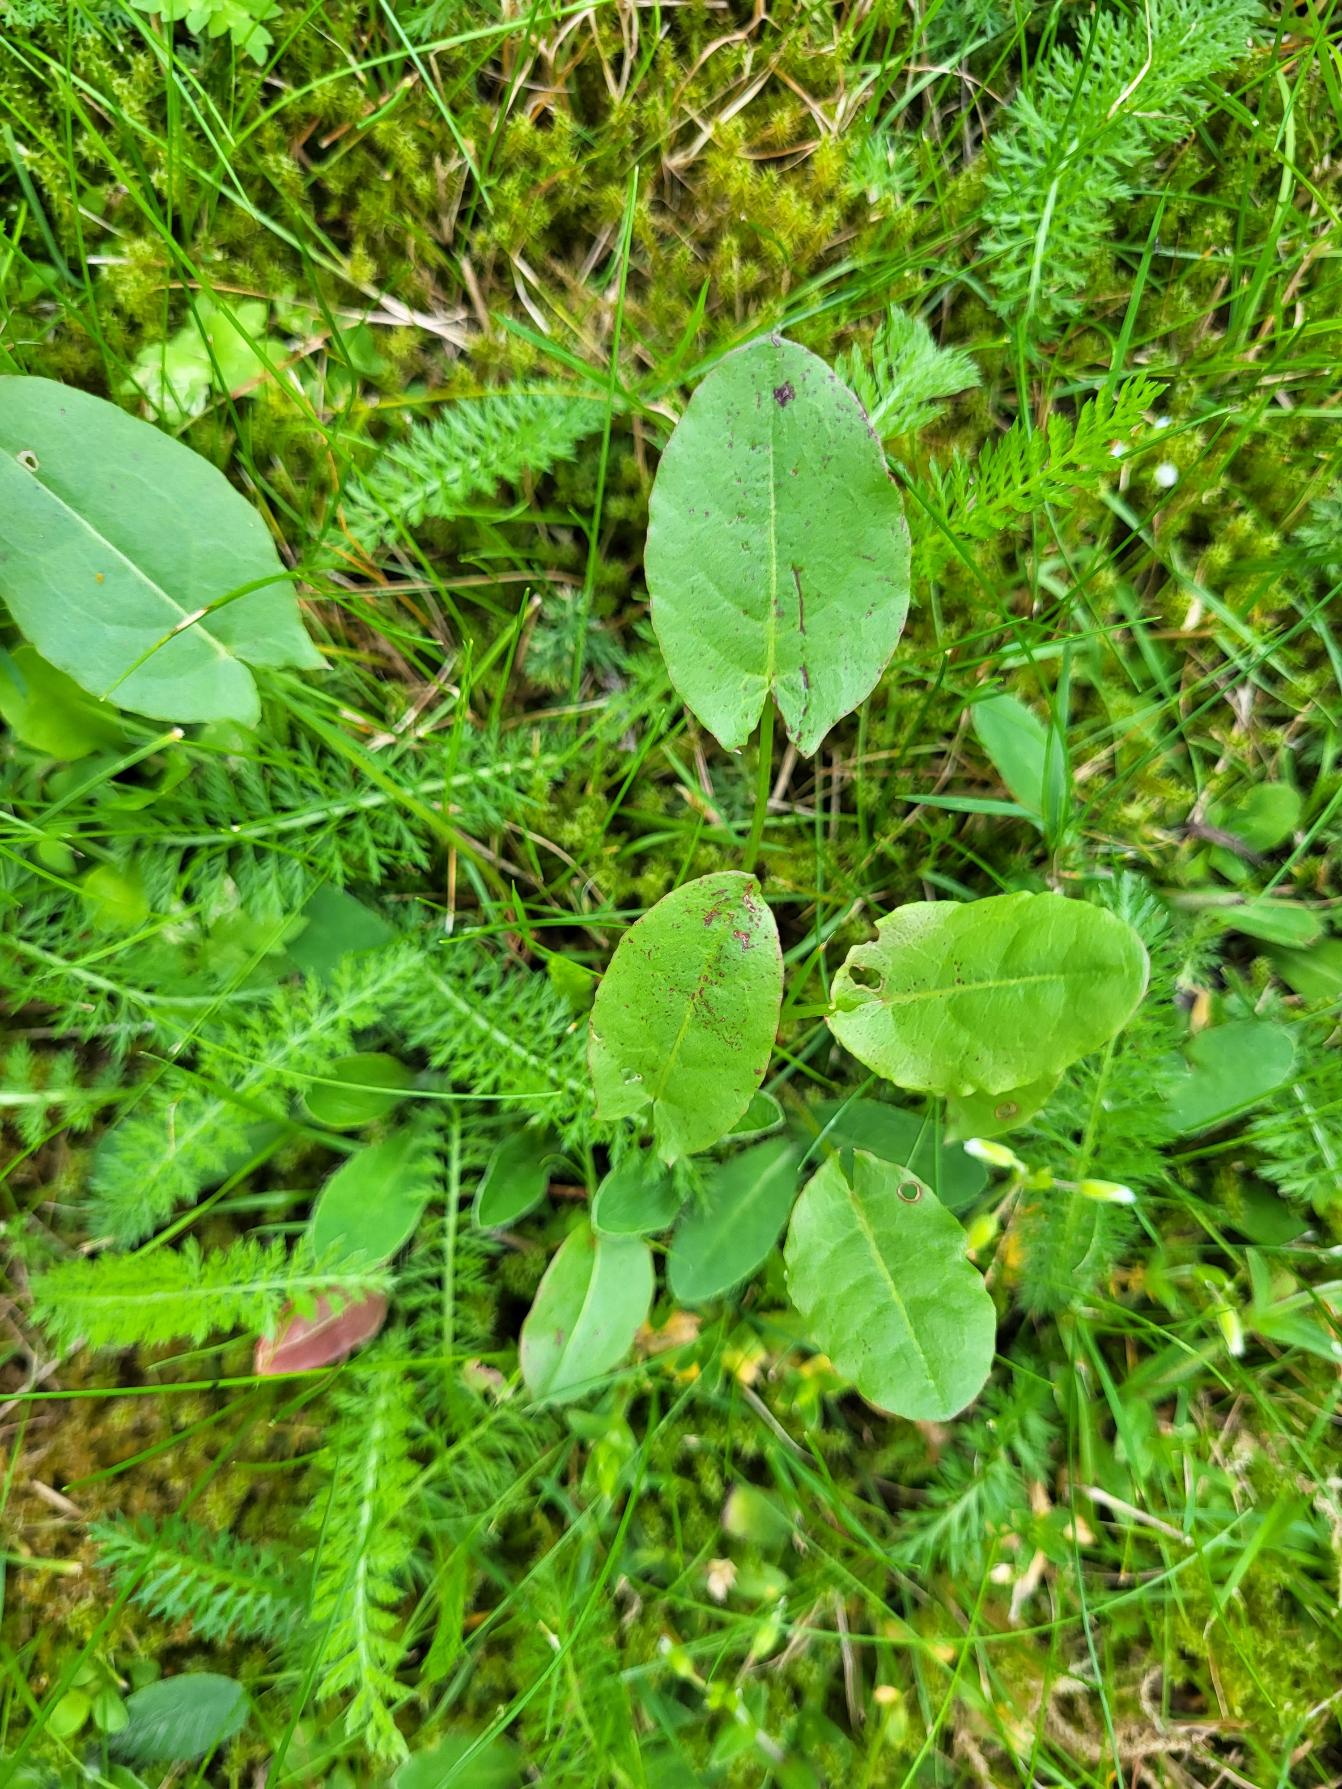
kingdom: Plantae
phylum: Tracheophyta
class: Magnoliopsida
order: Caryophyllales
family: Polygonaceae
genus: Rumex
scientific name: Rumex acetosa
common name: Almindelig syre
